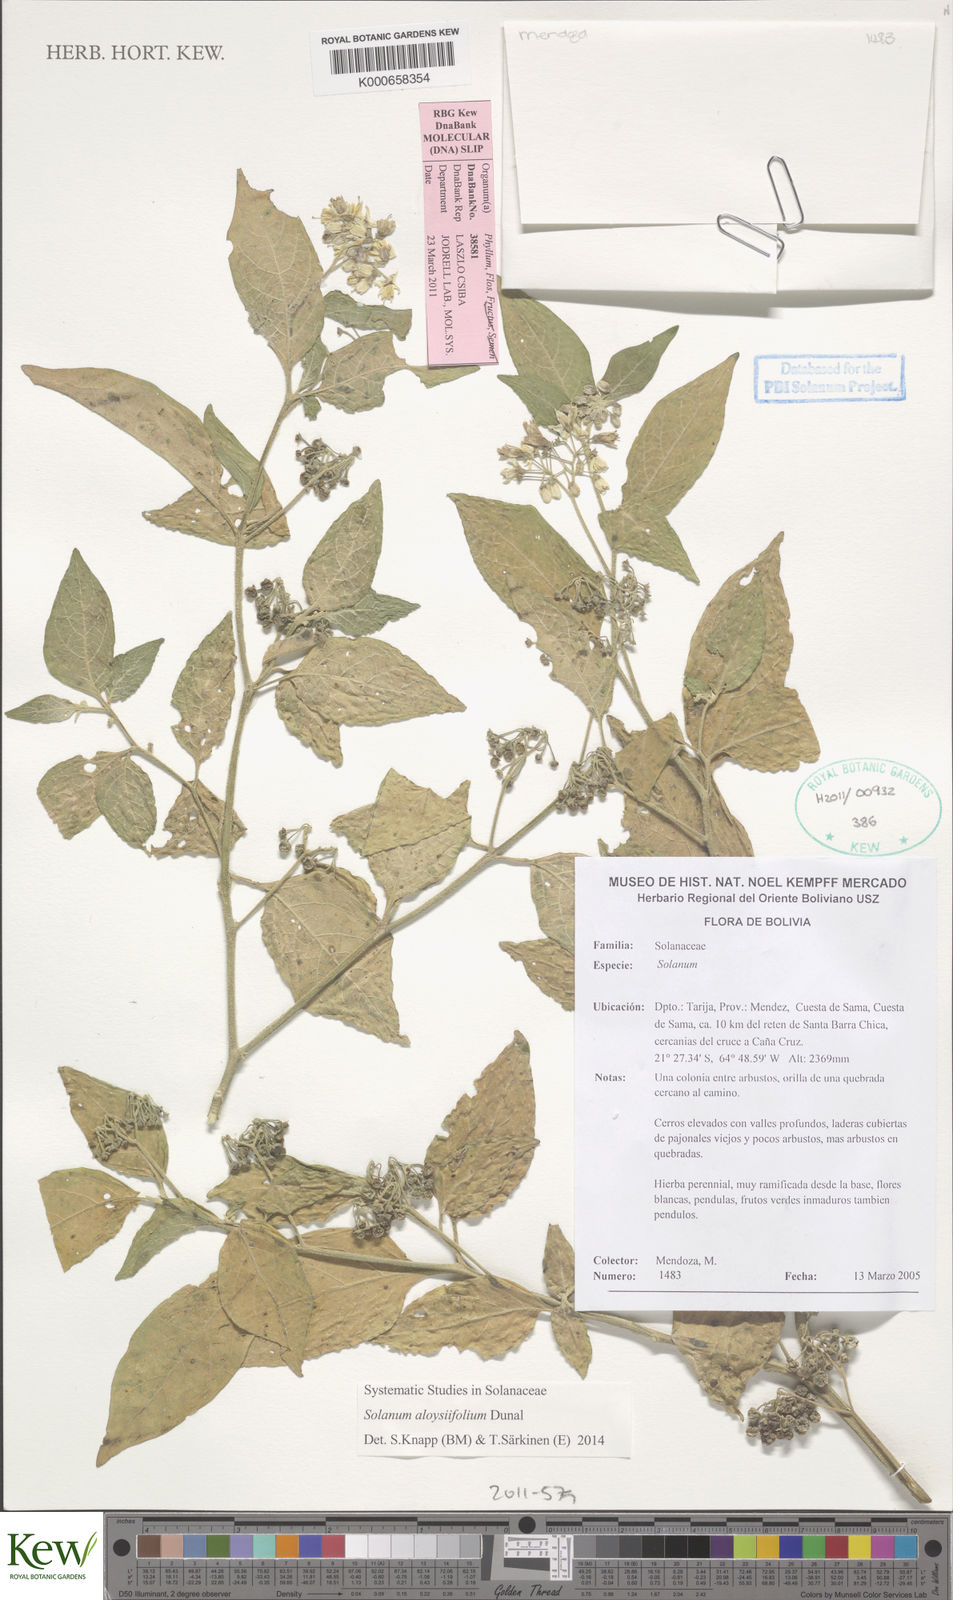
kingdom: Plantae
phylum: Tracheophyta
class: Magnoliopsida
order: Solanales
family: Solanaceae
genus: Solanum
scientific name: Solanum aloysiifolium
